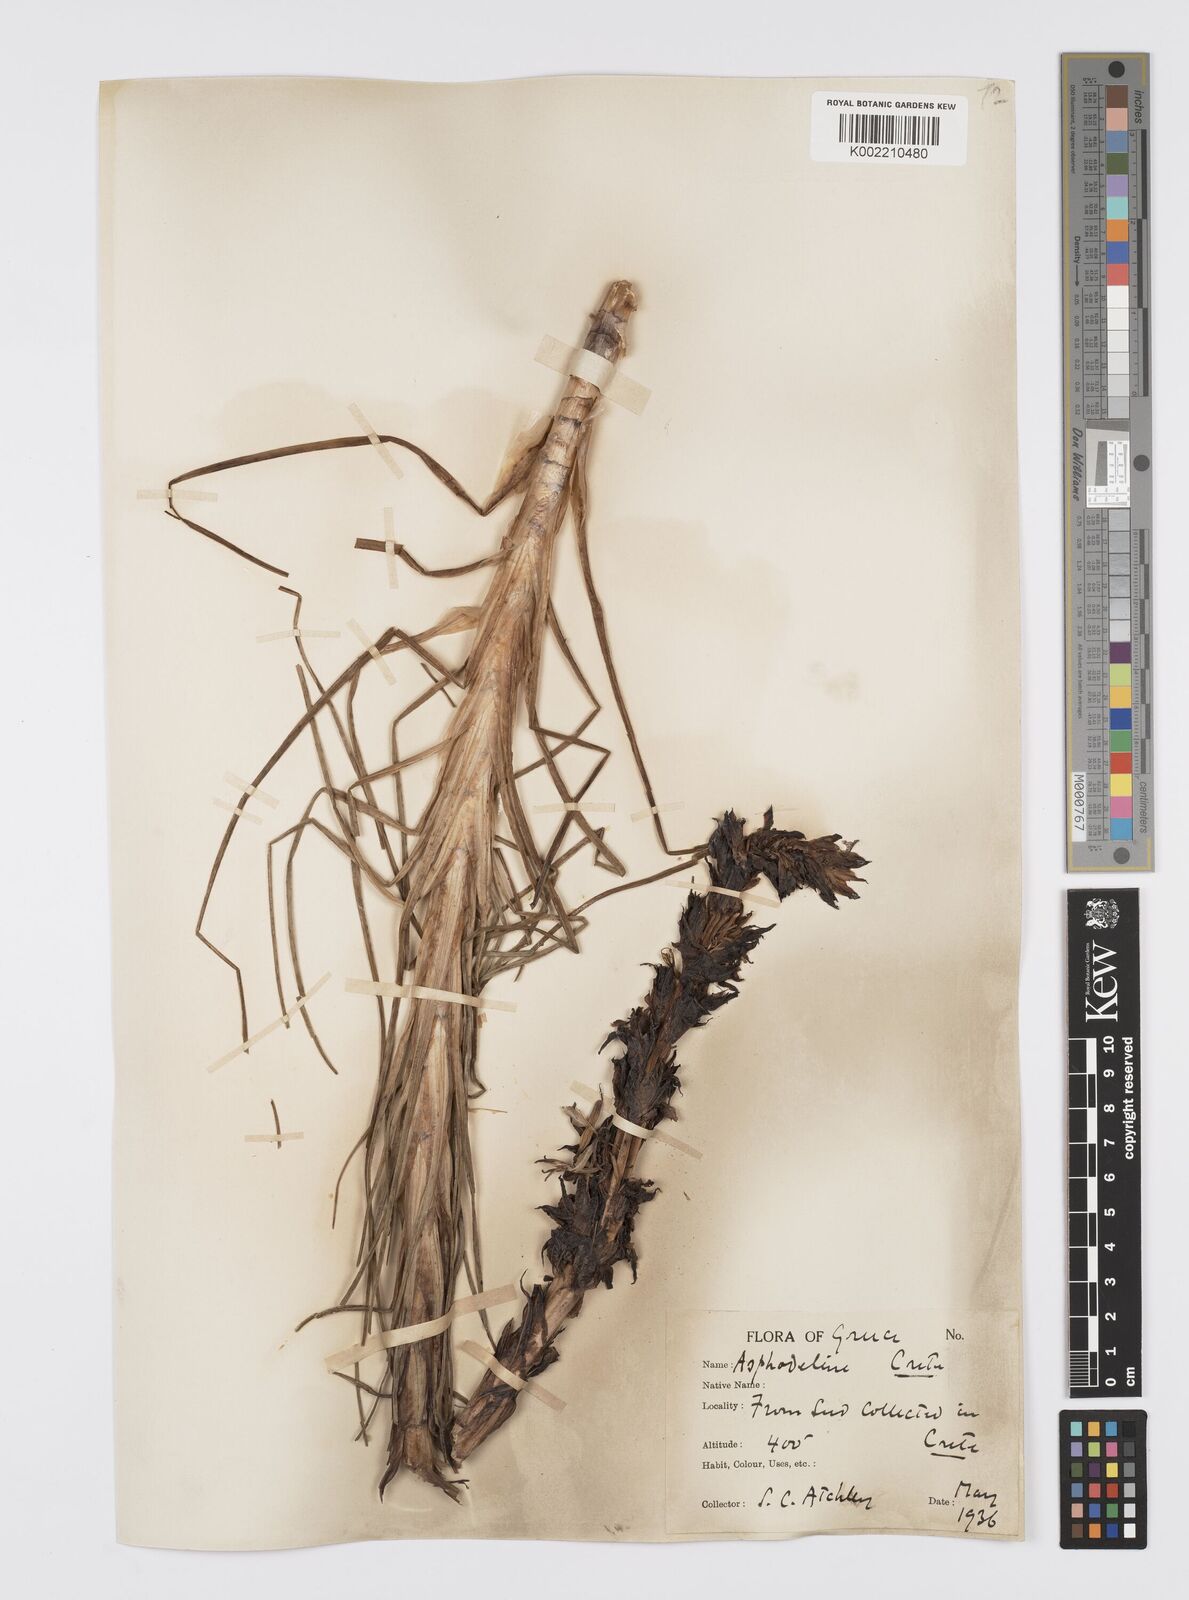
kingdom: Plantae
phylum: Tracheophyta
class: Liliopsida
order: Asparagales
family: Asphodelaceae
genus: Asphodeline
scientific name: Asphodeline lutea
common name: Yellow asphodel
